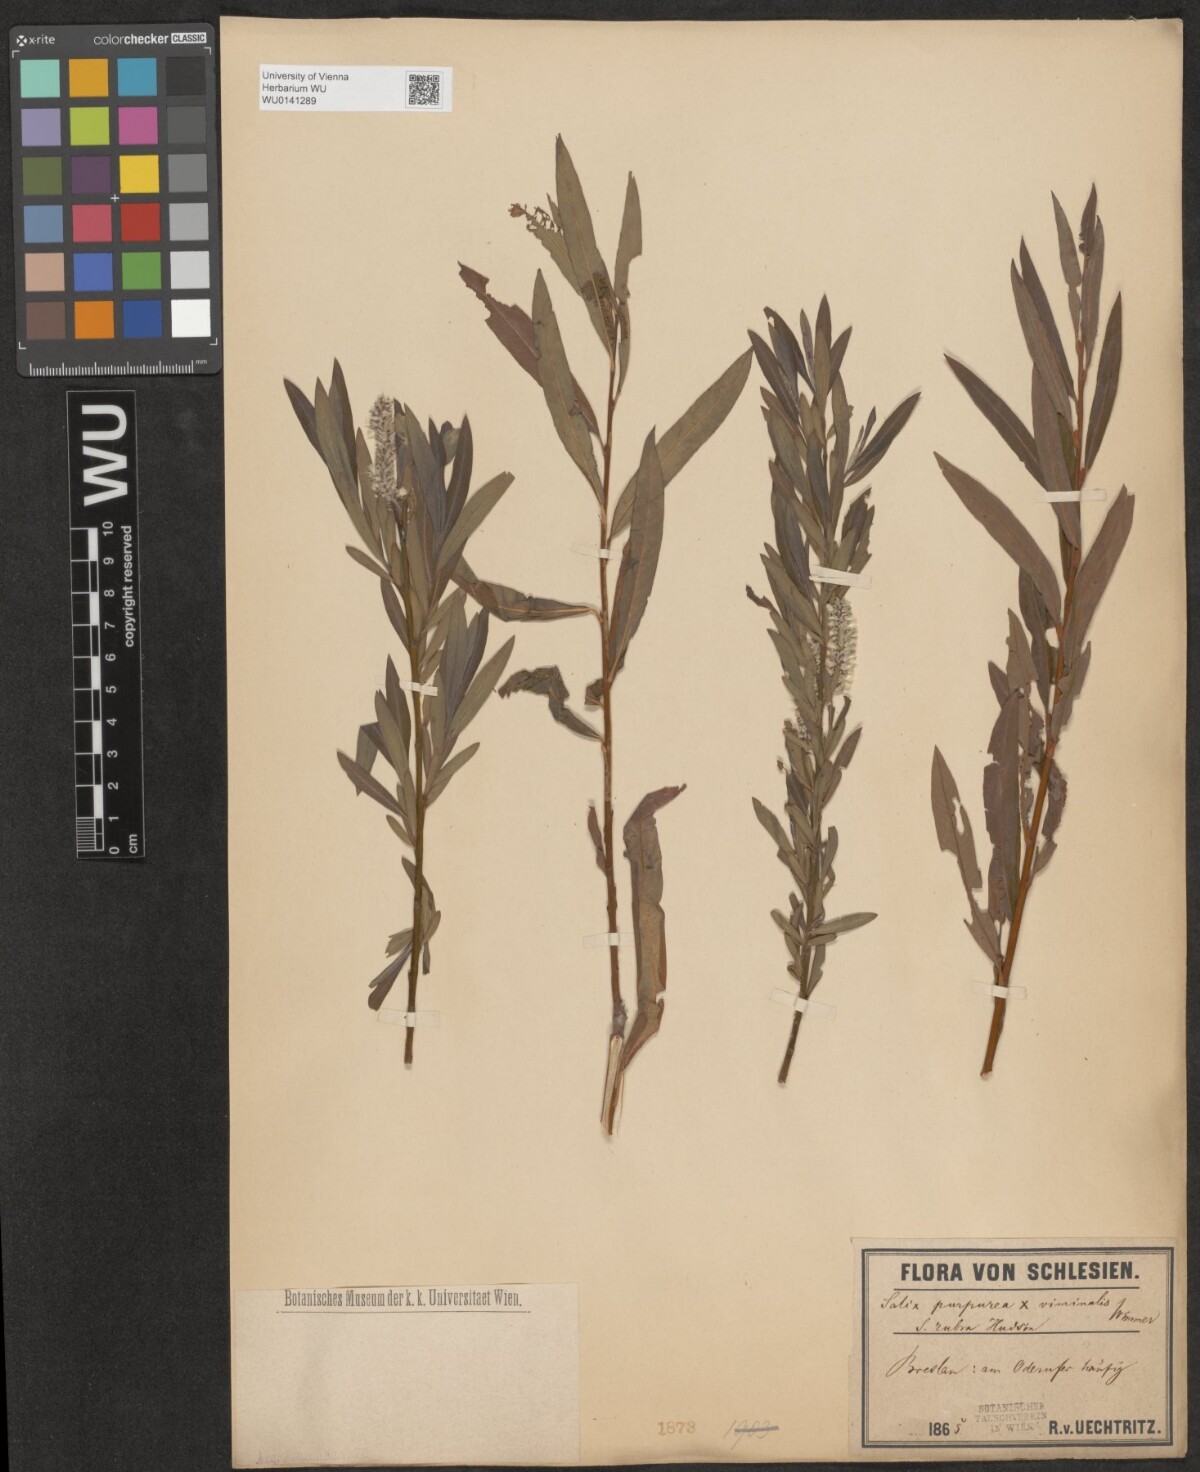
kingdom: Plantae
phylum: Tracheophyta
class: Magnoliopsida
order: Malpighiales
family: Salicaceae
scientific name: Salicaceae
